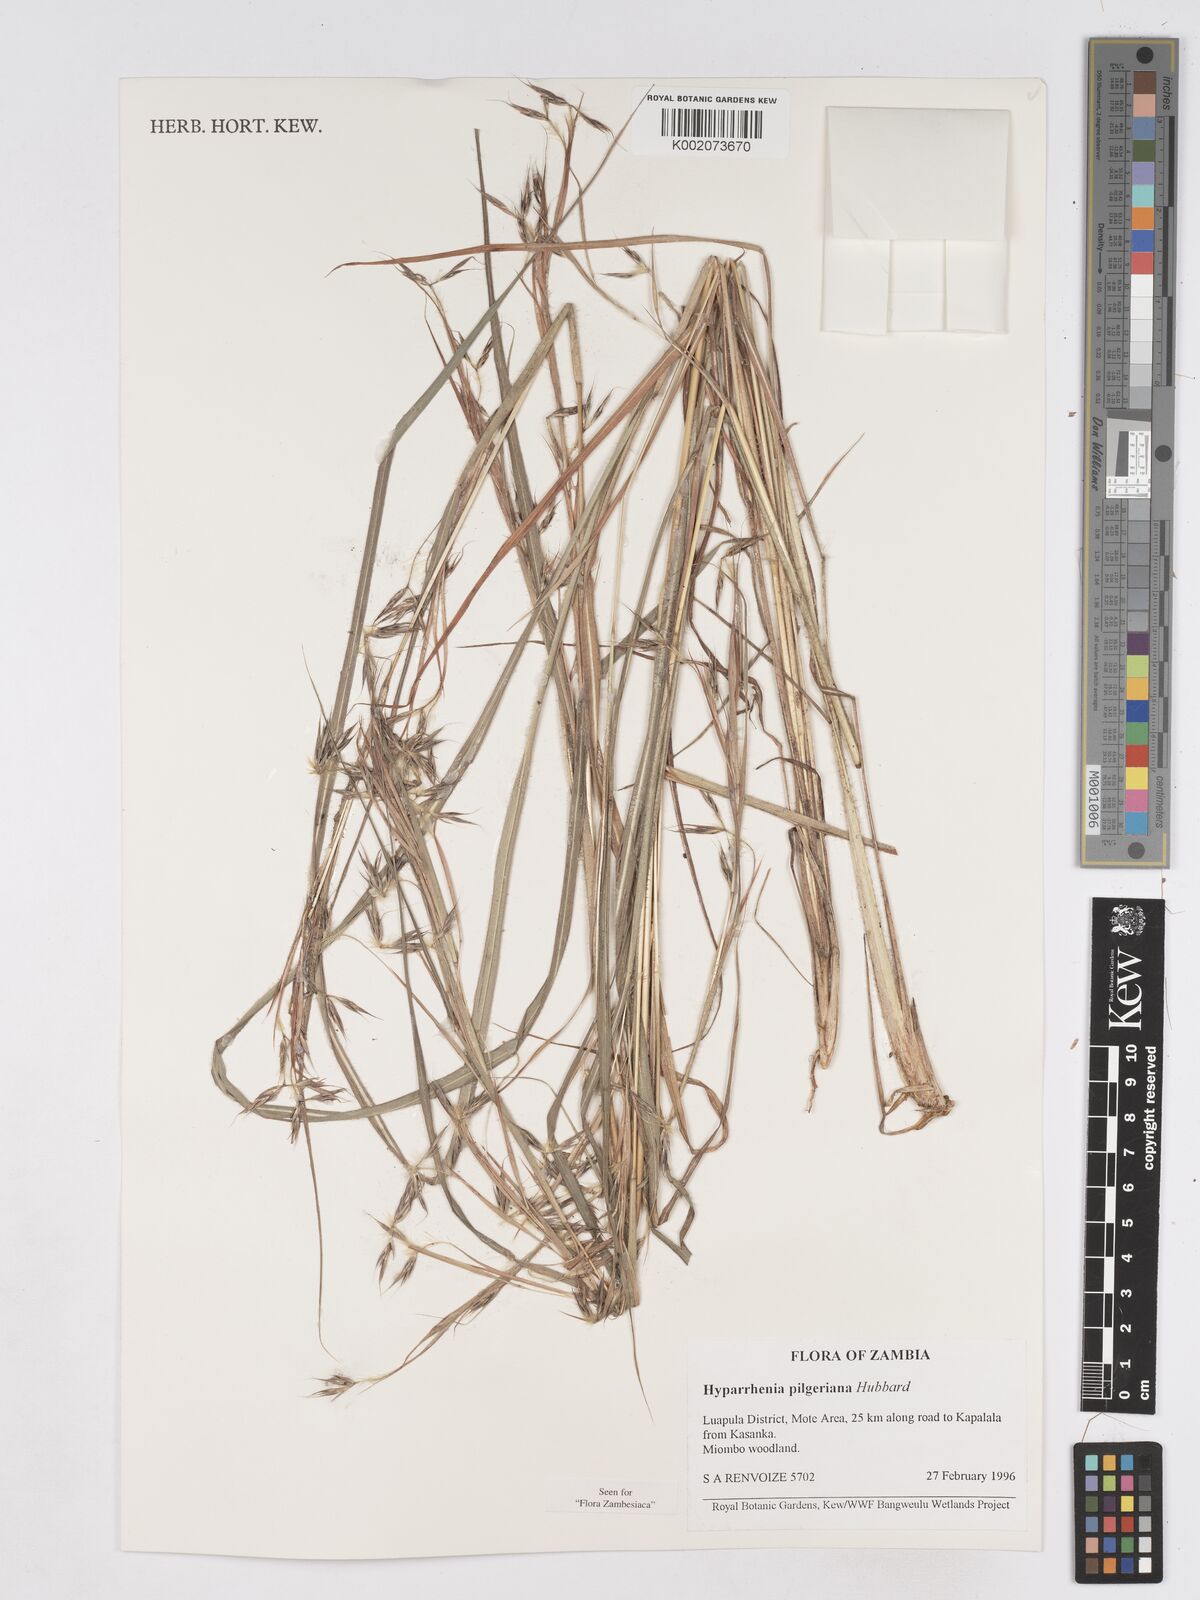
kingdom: Plantae
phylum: Tracheophyta
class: Liliopsida
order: Poales
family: Poaceae
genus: Hyparrhenia
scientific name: Hyparrhenia pilgeriana
